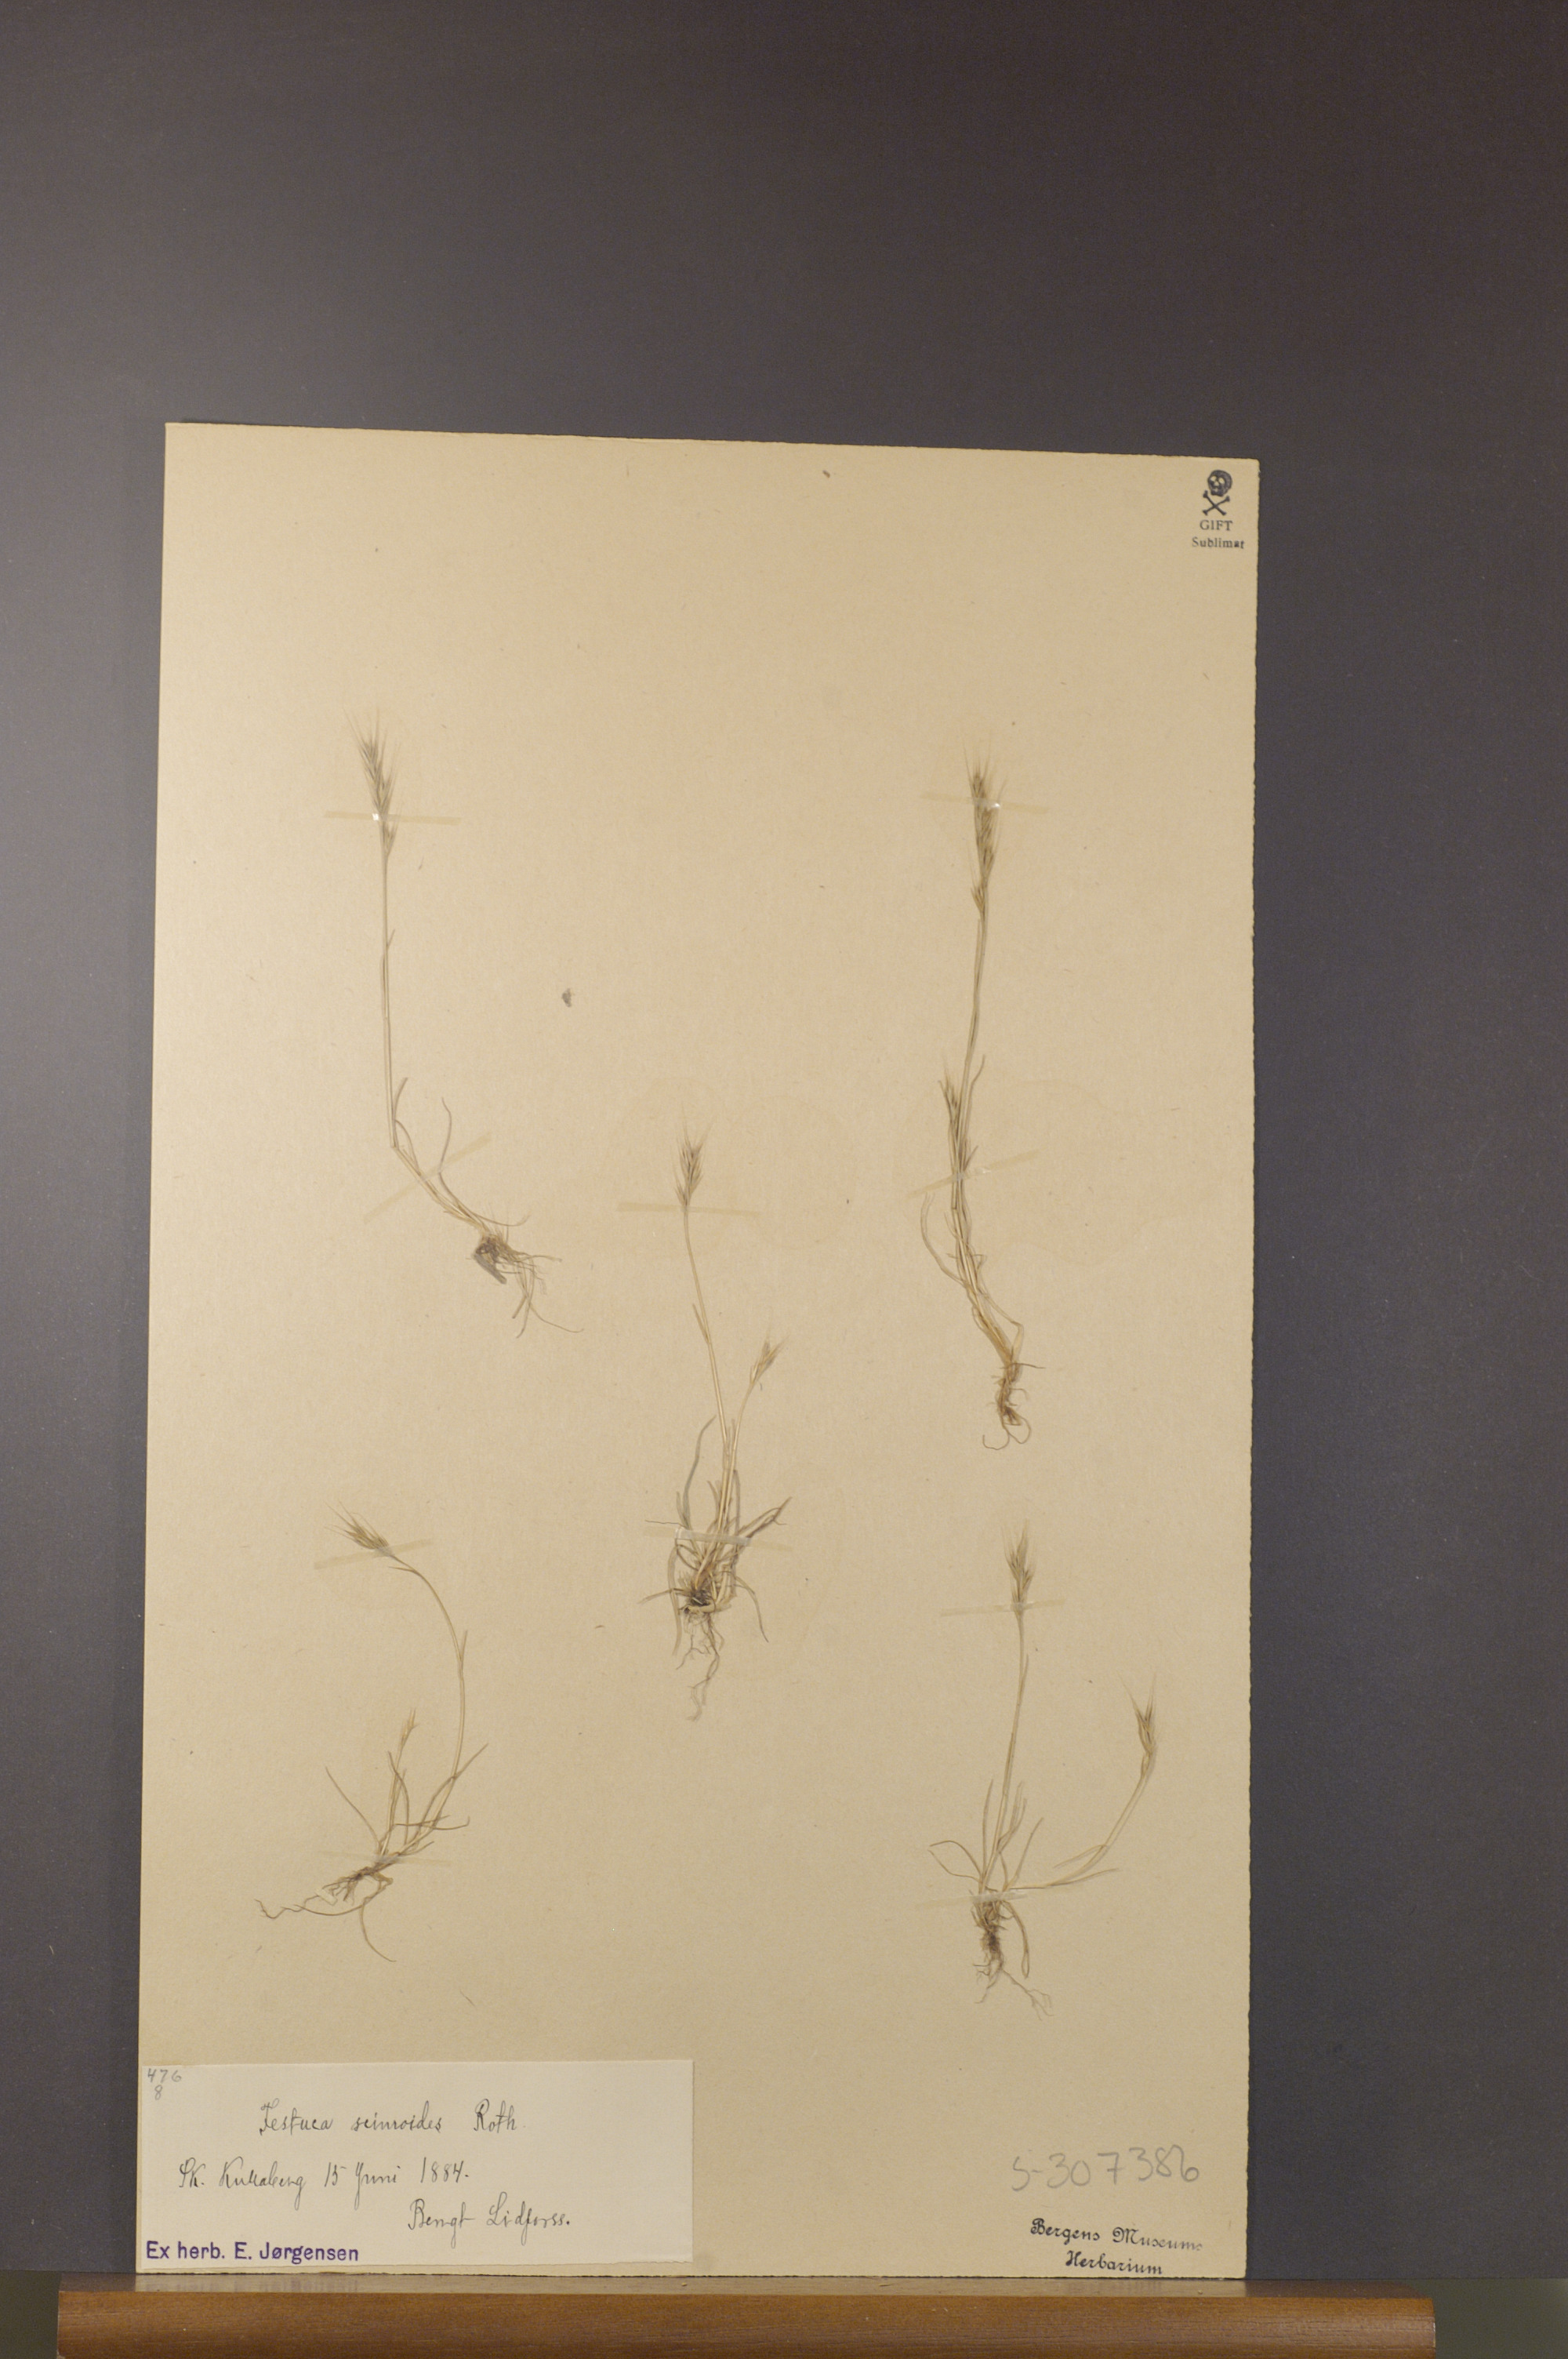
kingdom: Plantae
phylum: Tracheophyta
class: Liliopsida
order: Poales
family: Poaceae
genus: Festuca
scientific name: Festuca bromoides
